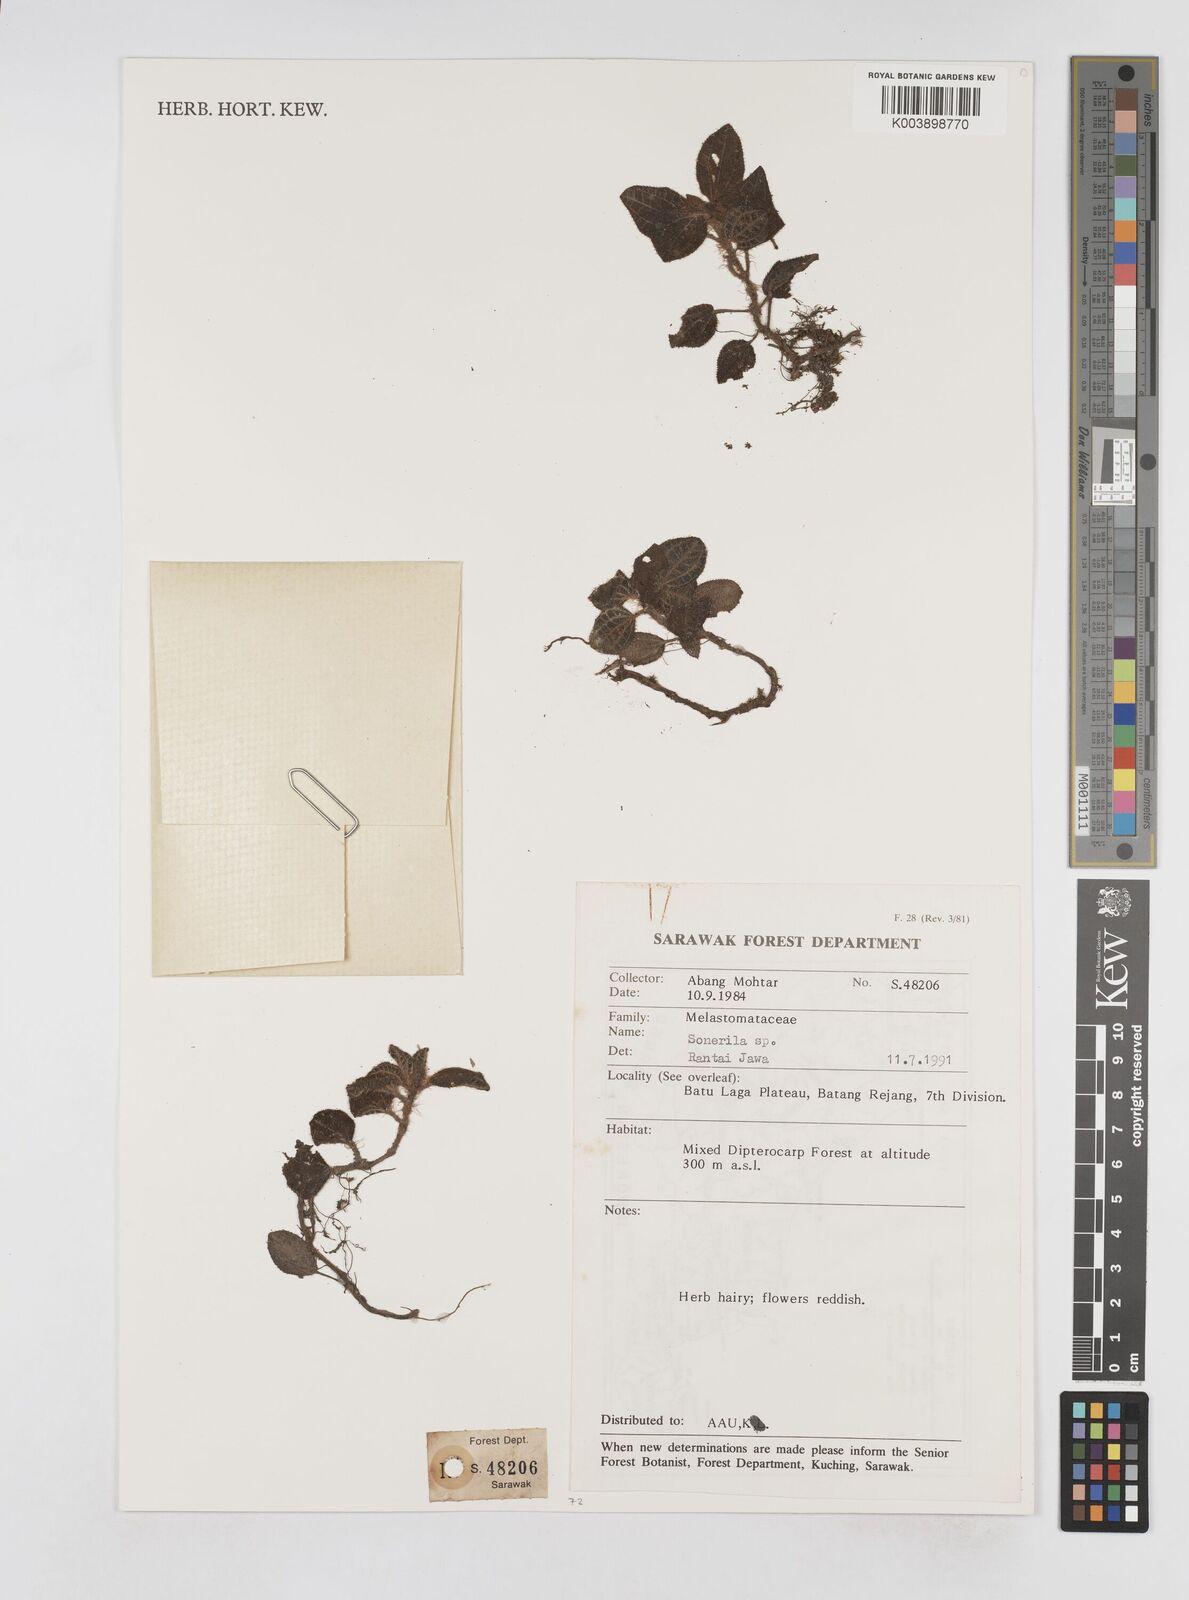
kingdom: Plantae
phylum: Tracheophyta
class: Magnoliopsida
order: Myrtales
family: Melastomataceae
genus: Sonerila
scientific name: Sonerila
